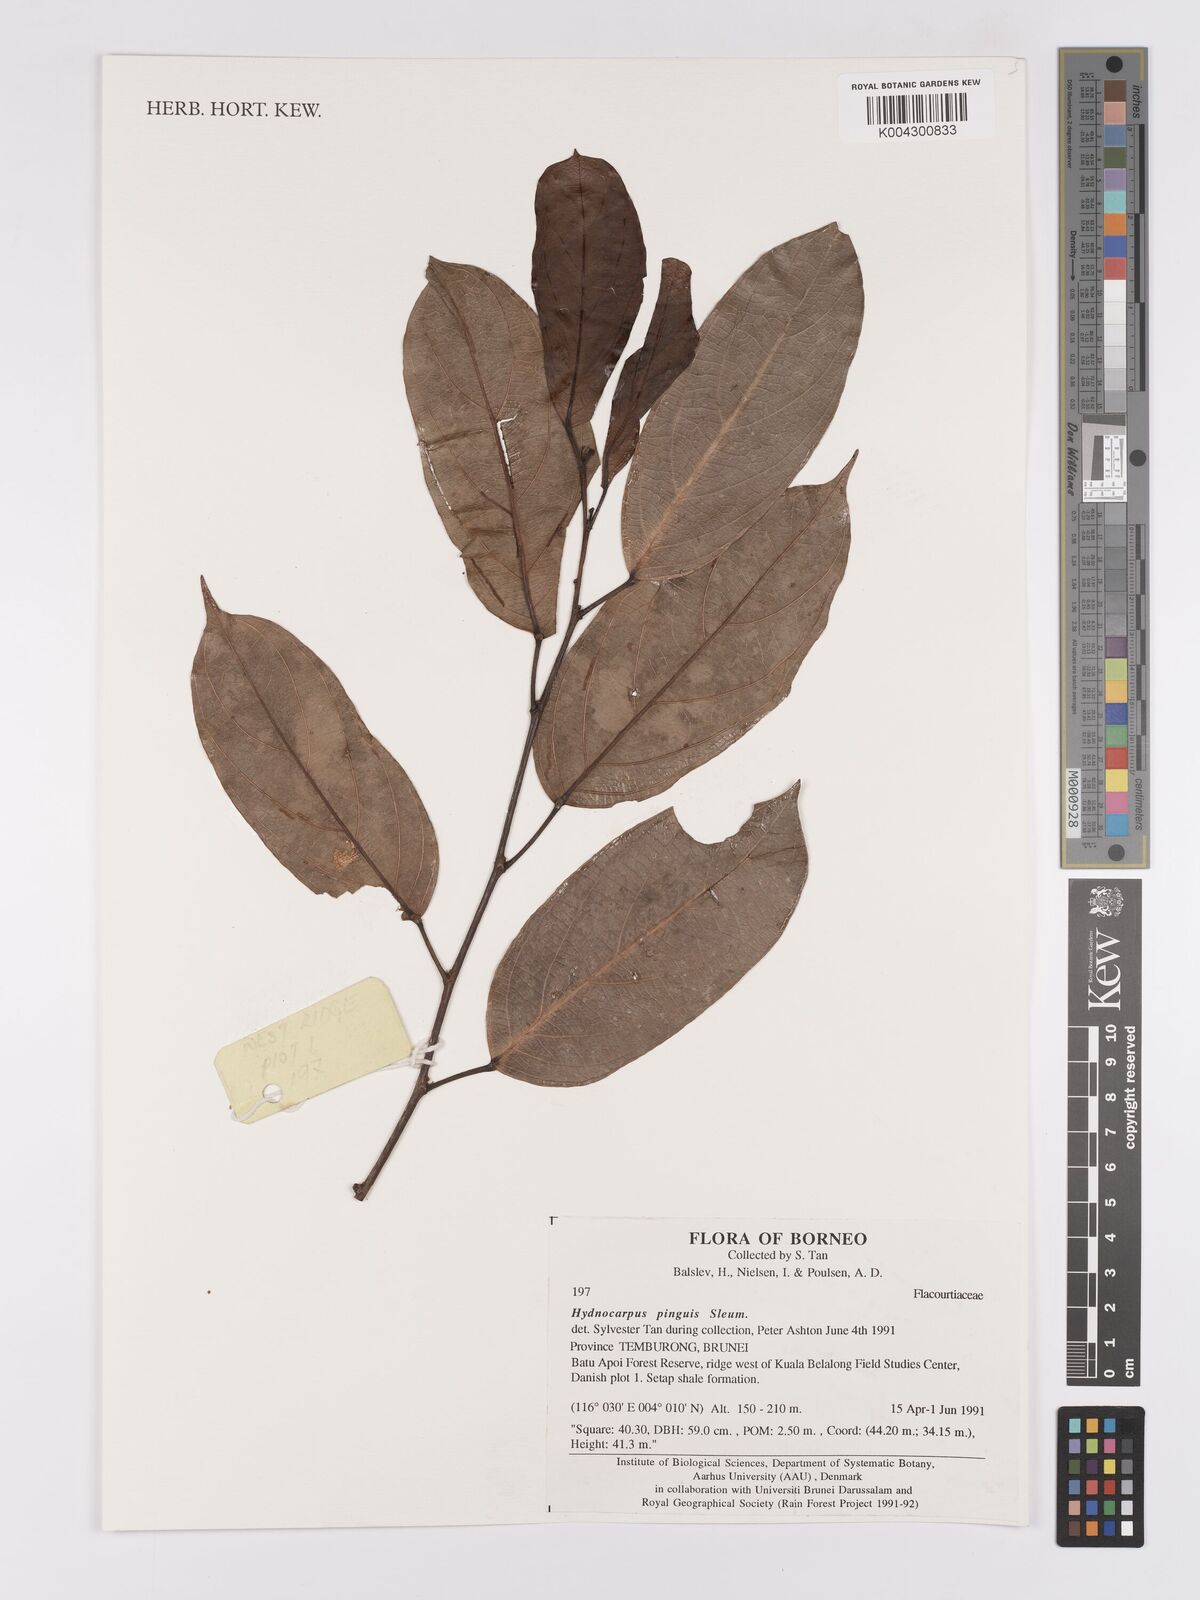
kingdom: Plantae
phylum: Tracheophyta
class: Magnoliopsida
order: Malpighiales
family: Achariaceae
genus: Hydnocarpus
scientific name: Hydnocarpus pinguis
